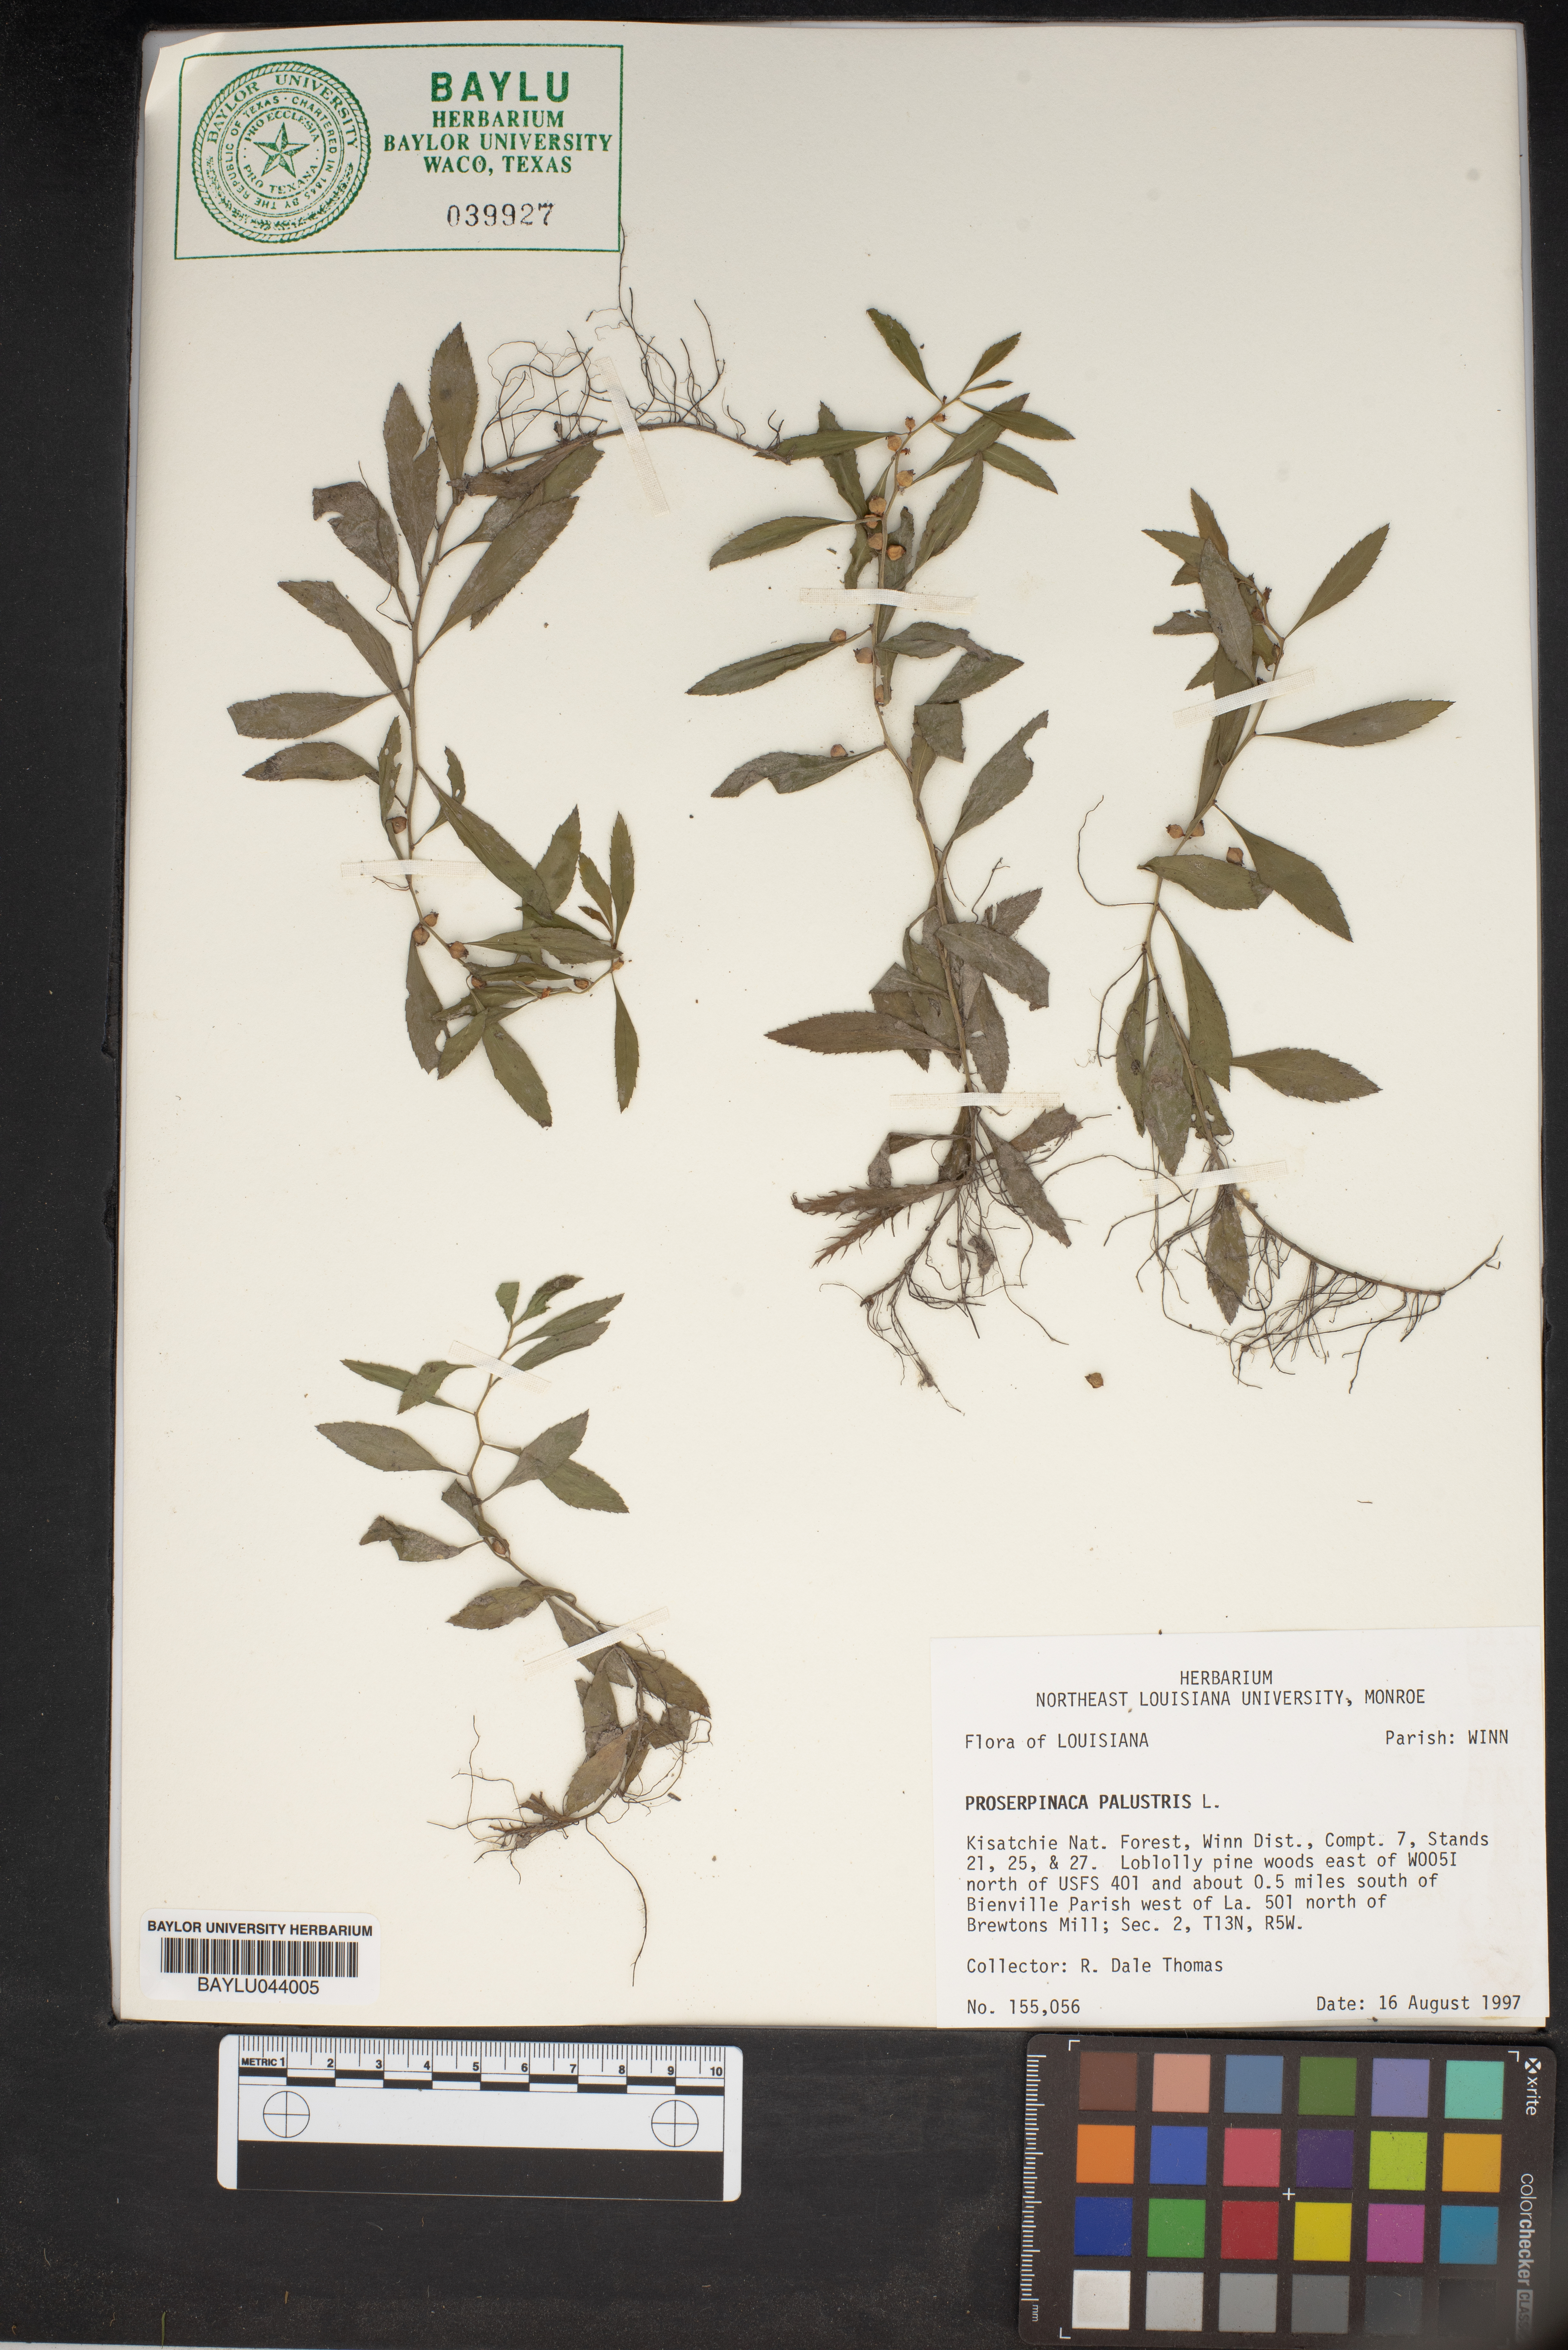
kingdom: Plantae
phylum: Tracheophyta
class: Magnoliopsida
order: Saxifragales
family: Haloragaceae
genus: Proserpinaca
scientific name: Proserpinaca palustris
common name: Marsh mermaidweed
